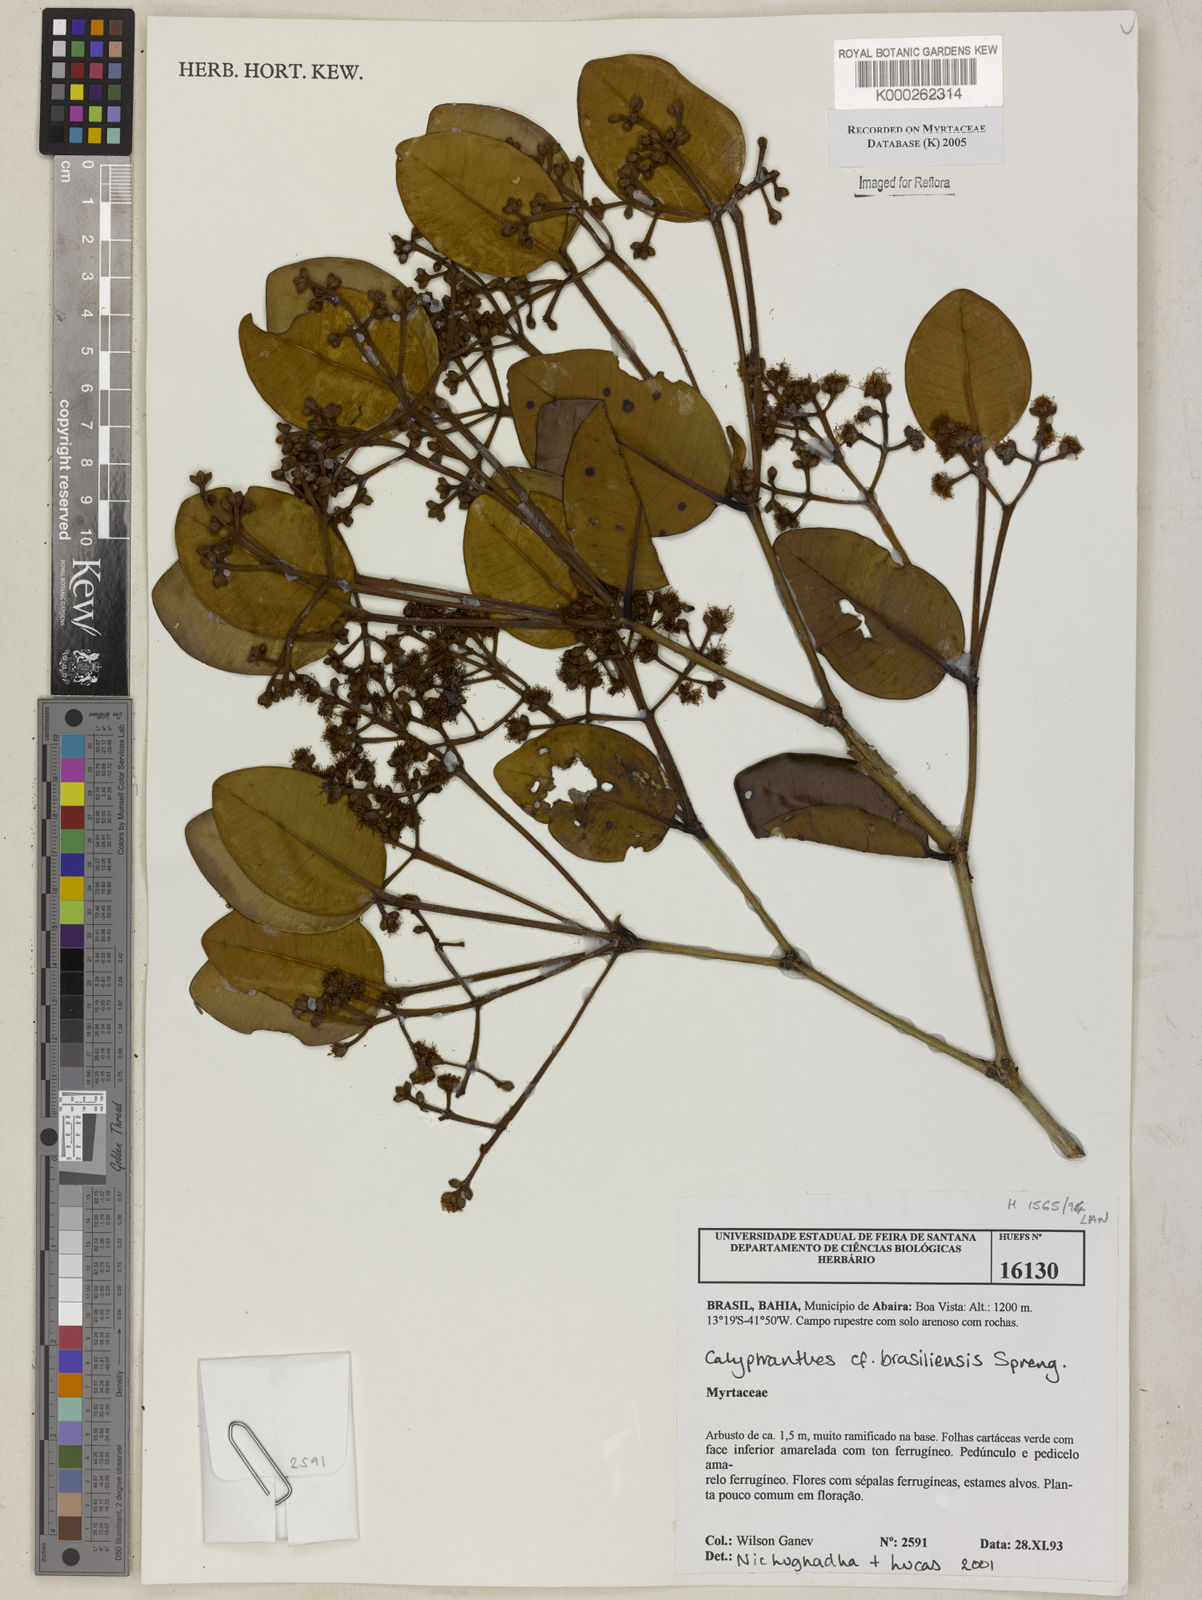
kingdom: Plantae
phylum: Tracheophyta
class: Magnoliopsida
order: Myrtales
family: Myrtaceae
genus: Myrcia
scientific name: Myrcia neobrasiliensis
